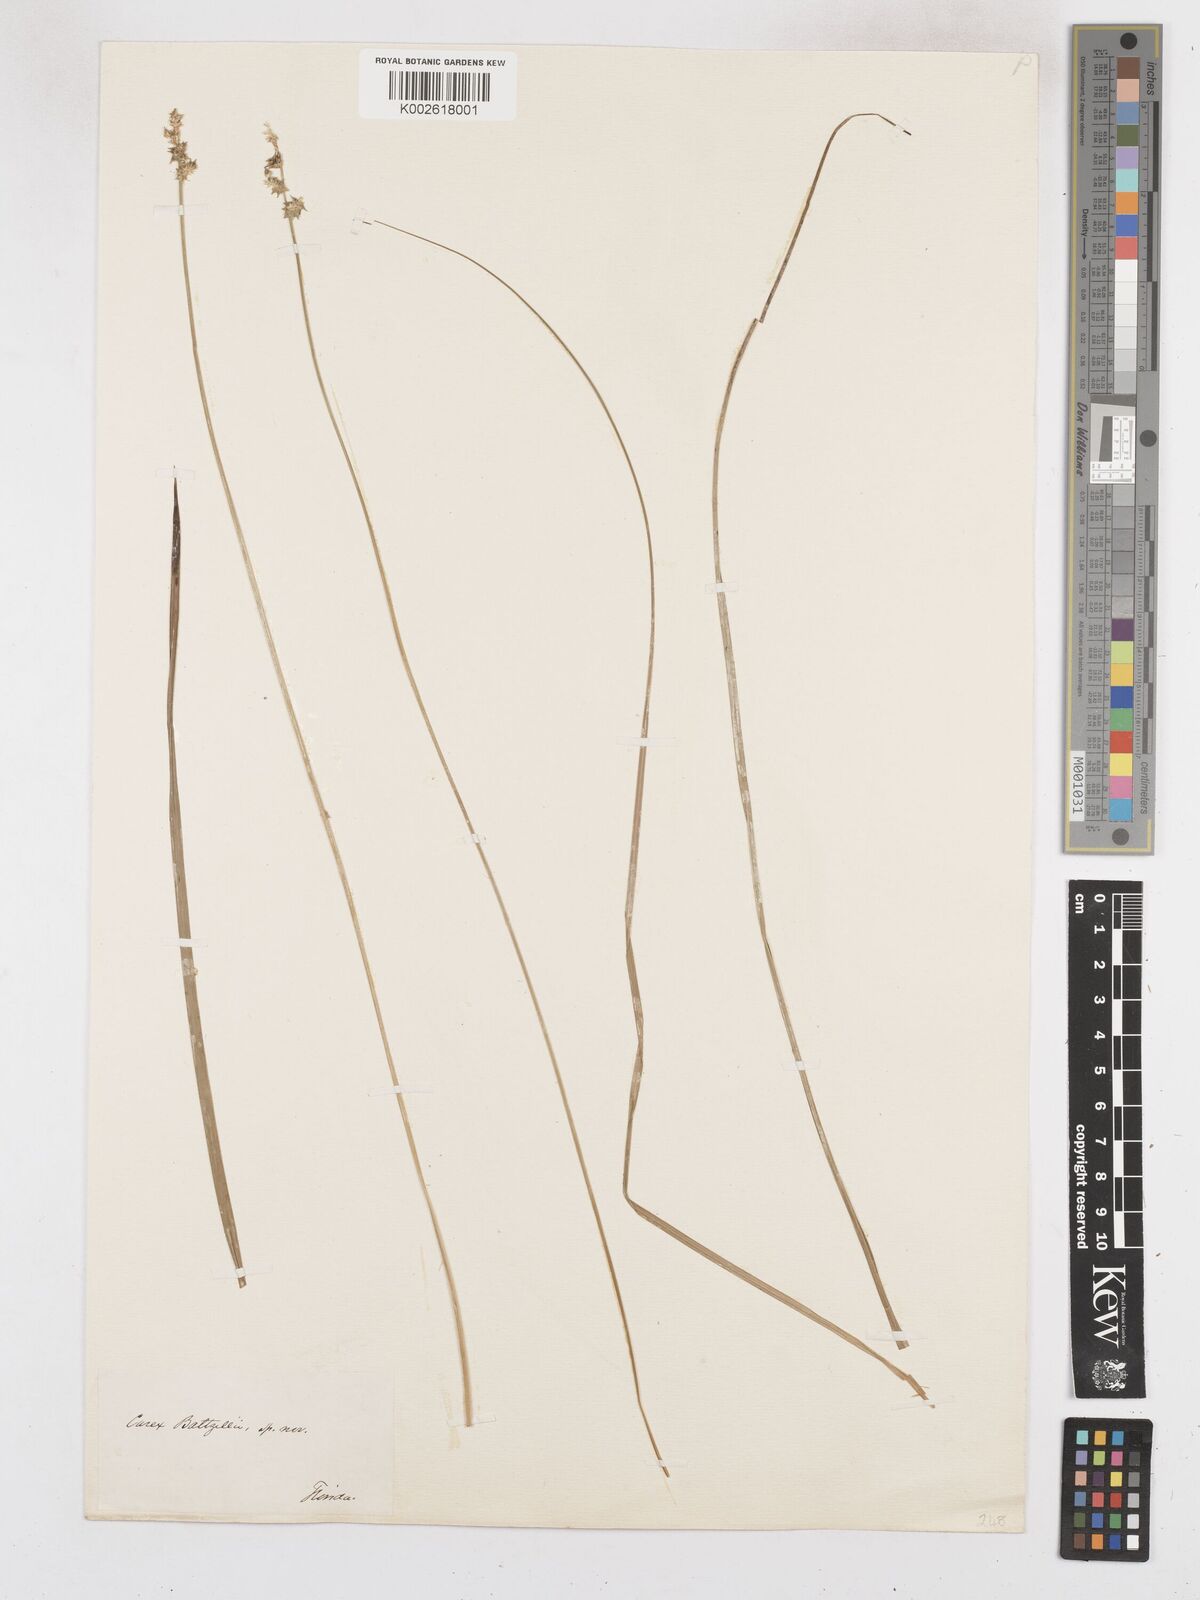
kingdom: Plantae
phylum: Tracheophyta
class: Liliopsida
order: Poales
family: Cyperaceae
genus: Carex
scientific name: Carex baltzellii
